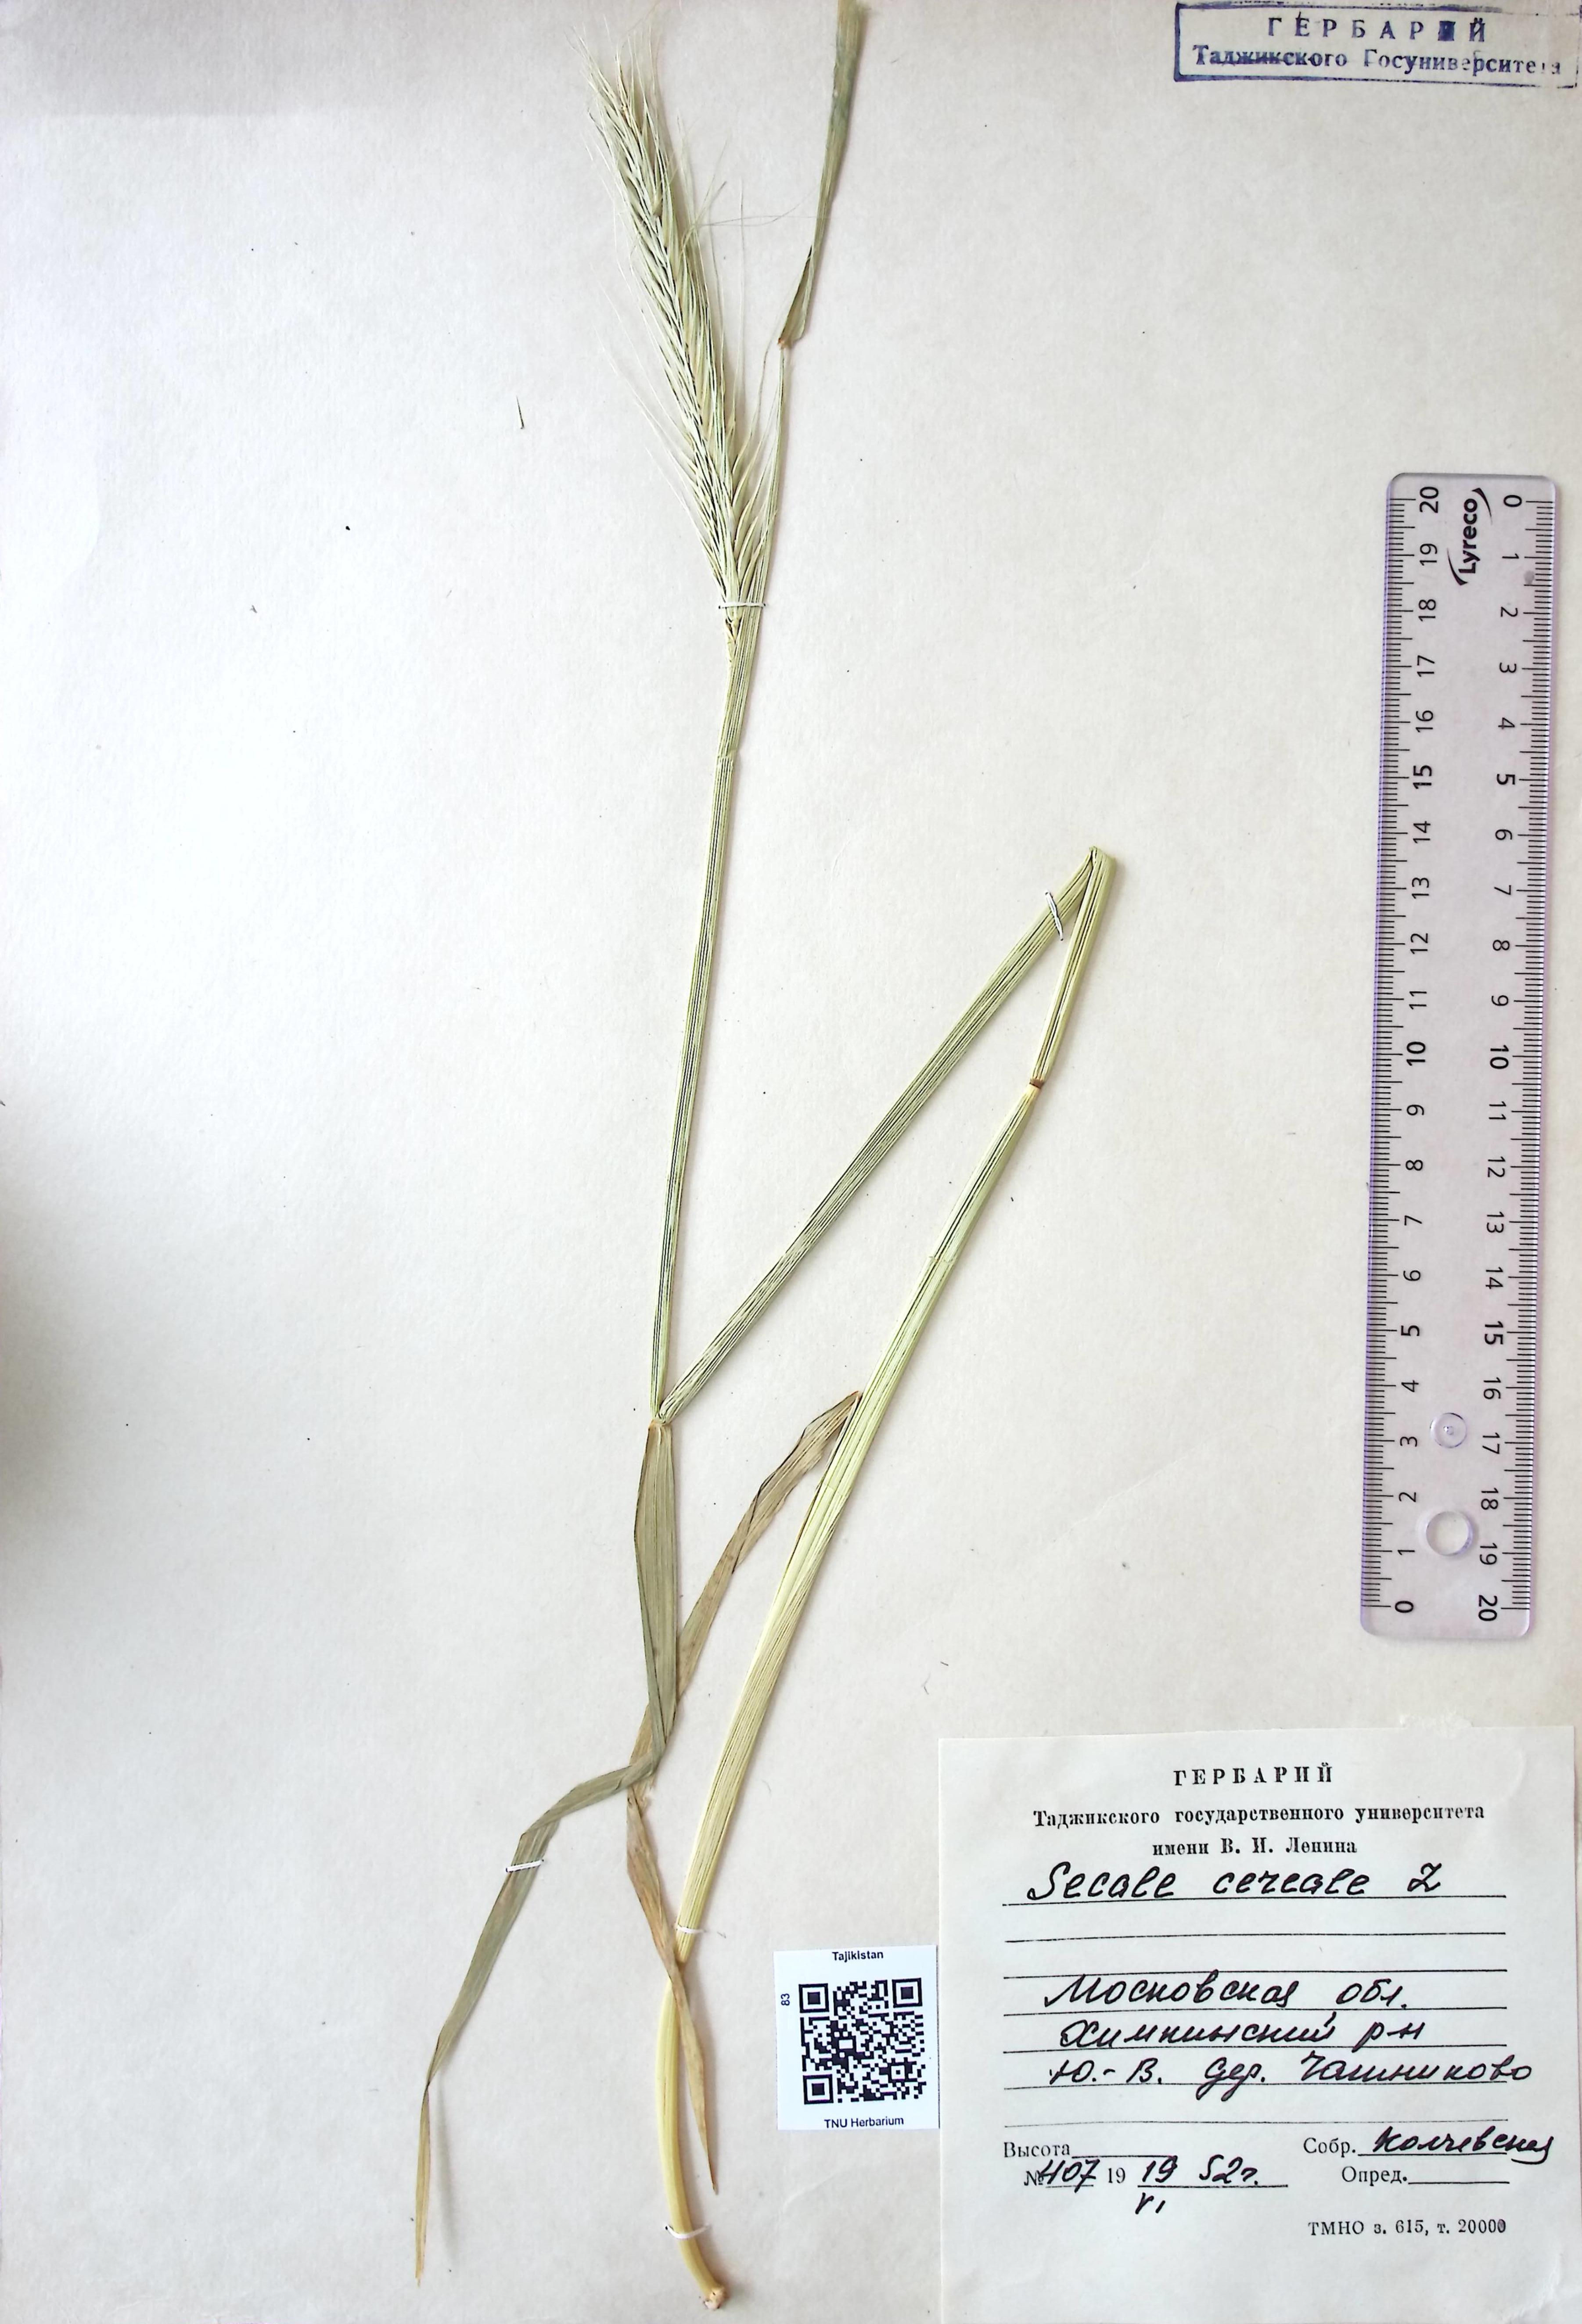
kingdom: Plantae
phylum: Tracheophyta
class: Liliopsida
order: Poales
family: Poaceae
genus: Secale
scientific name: Secale cereale
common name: Rye
